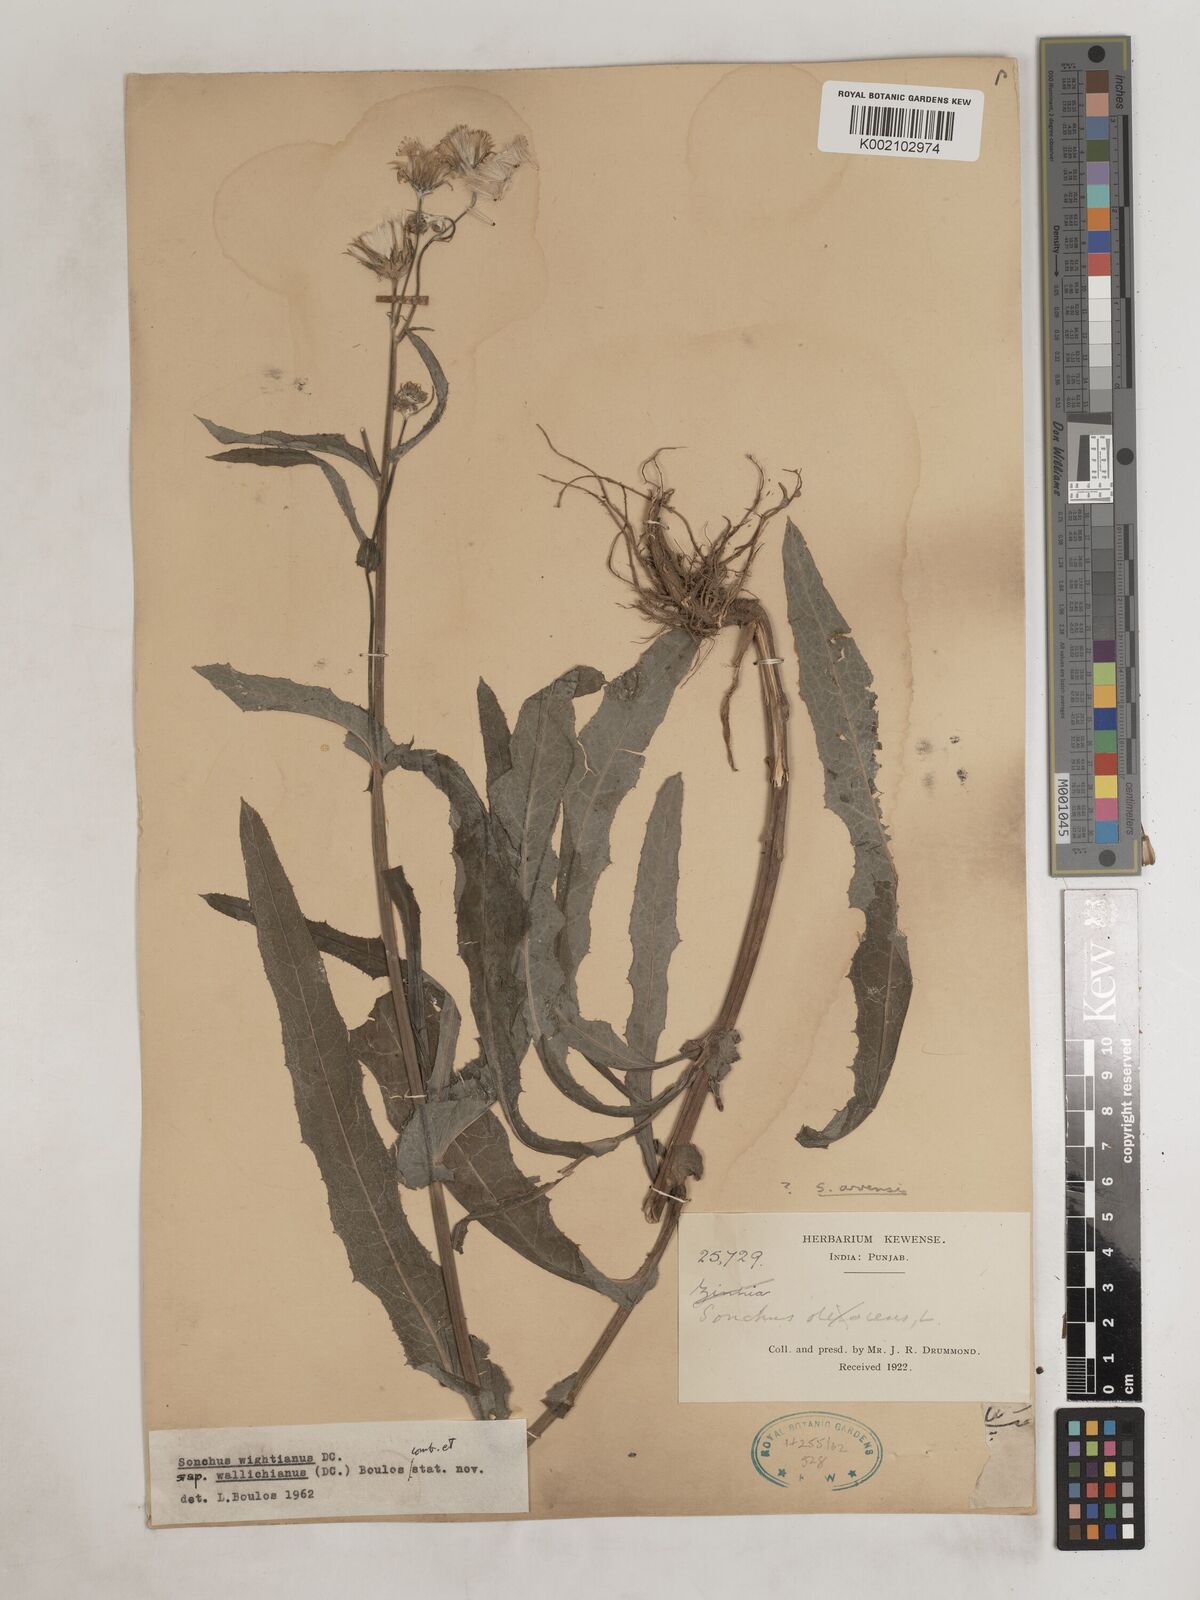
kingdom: Plantae
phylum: Tracheophyta
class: Magnoliopsida
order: Asterales
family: Asteraceae
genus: Sonchus
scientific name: Sonchus
